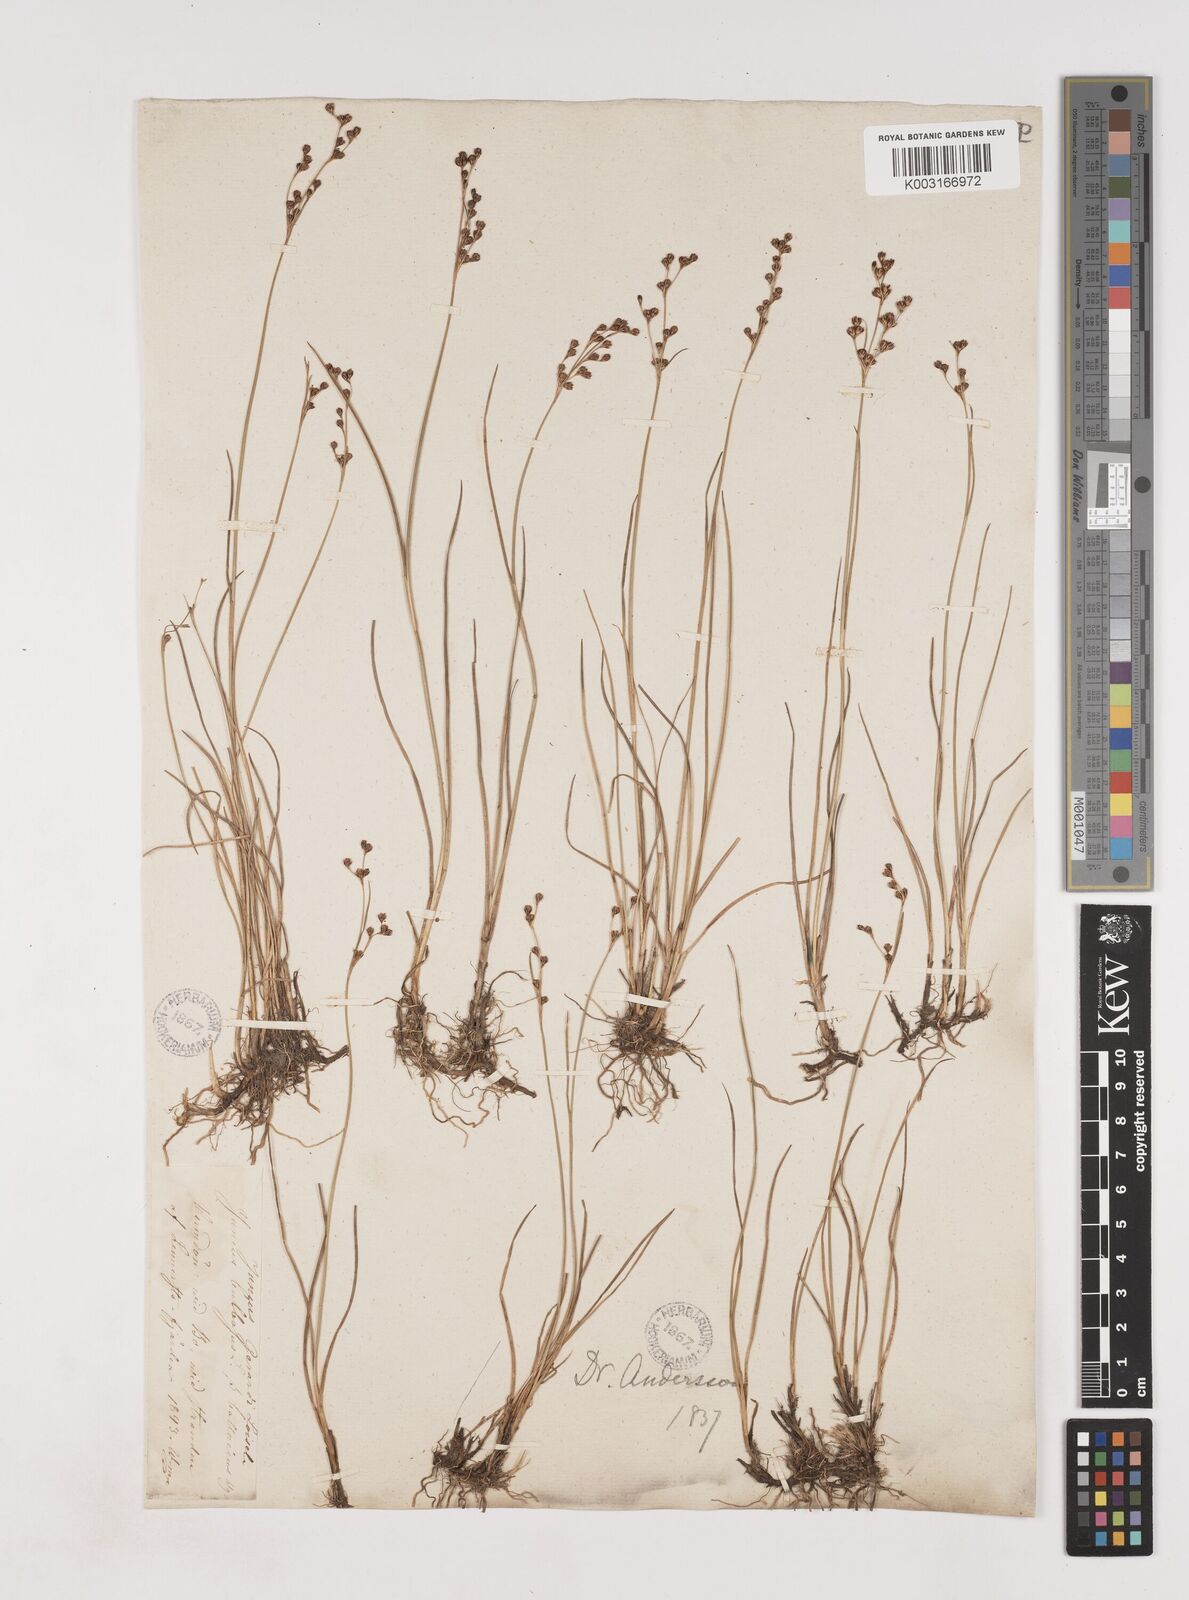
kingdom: Plantae
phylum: Tracheophyta
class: Liliopsida
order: Poales
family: Juncaceae
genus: Juncus
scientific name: Juncus gerardi
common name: Saltmarsh rush
